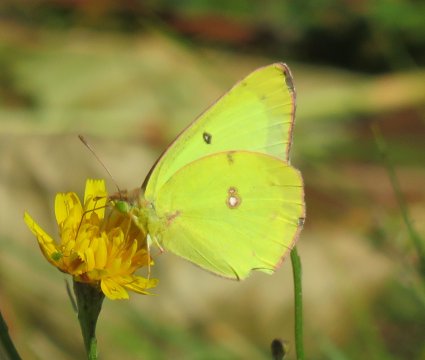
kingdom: Animalia
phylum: Arthropoda
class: Insecta
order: Lepidoptera
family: Pieridae
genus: Colias
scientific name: Colias philodice
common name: Clouded Sulphur
